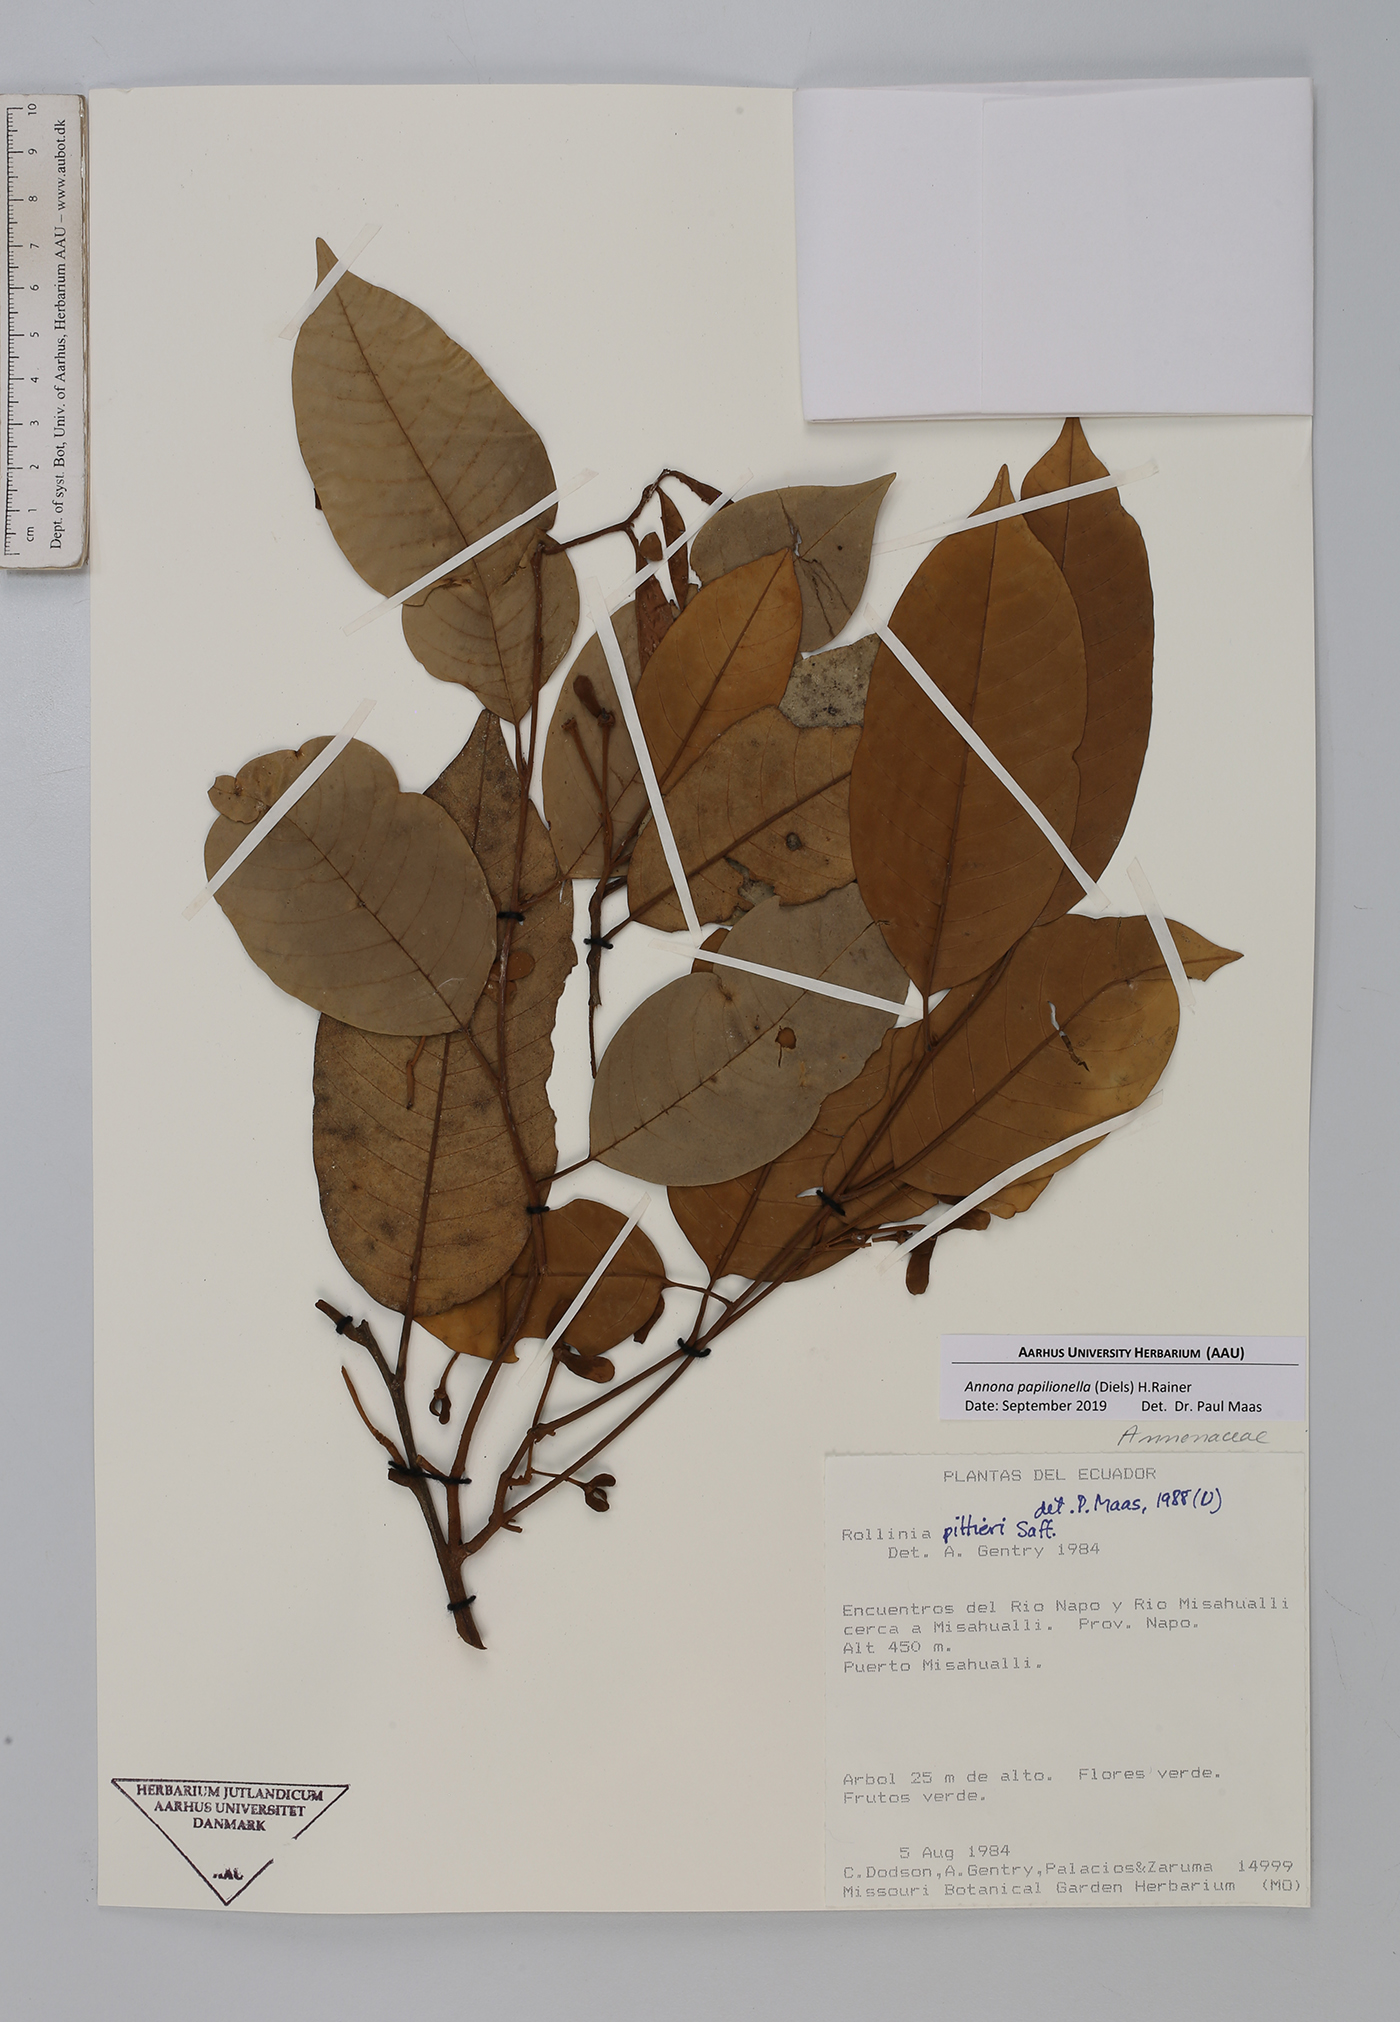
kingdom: Plantae
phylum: Tracheophyta
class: Magnoliopsida
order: Magnoliales
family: Annonaceae
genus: Annona
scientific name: Annona papilionella
